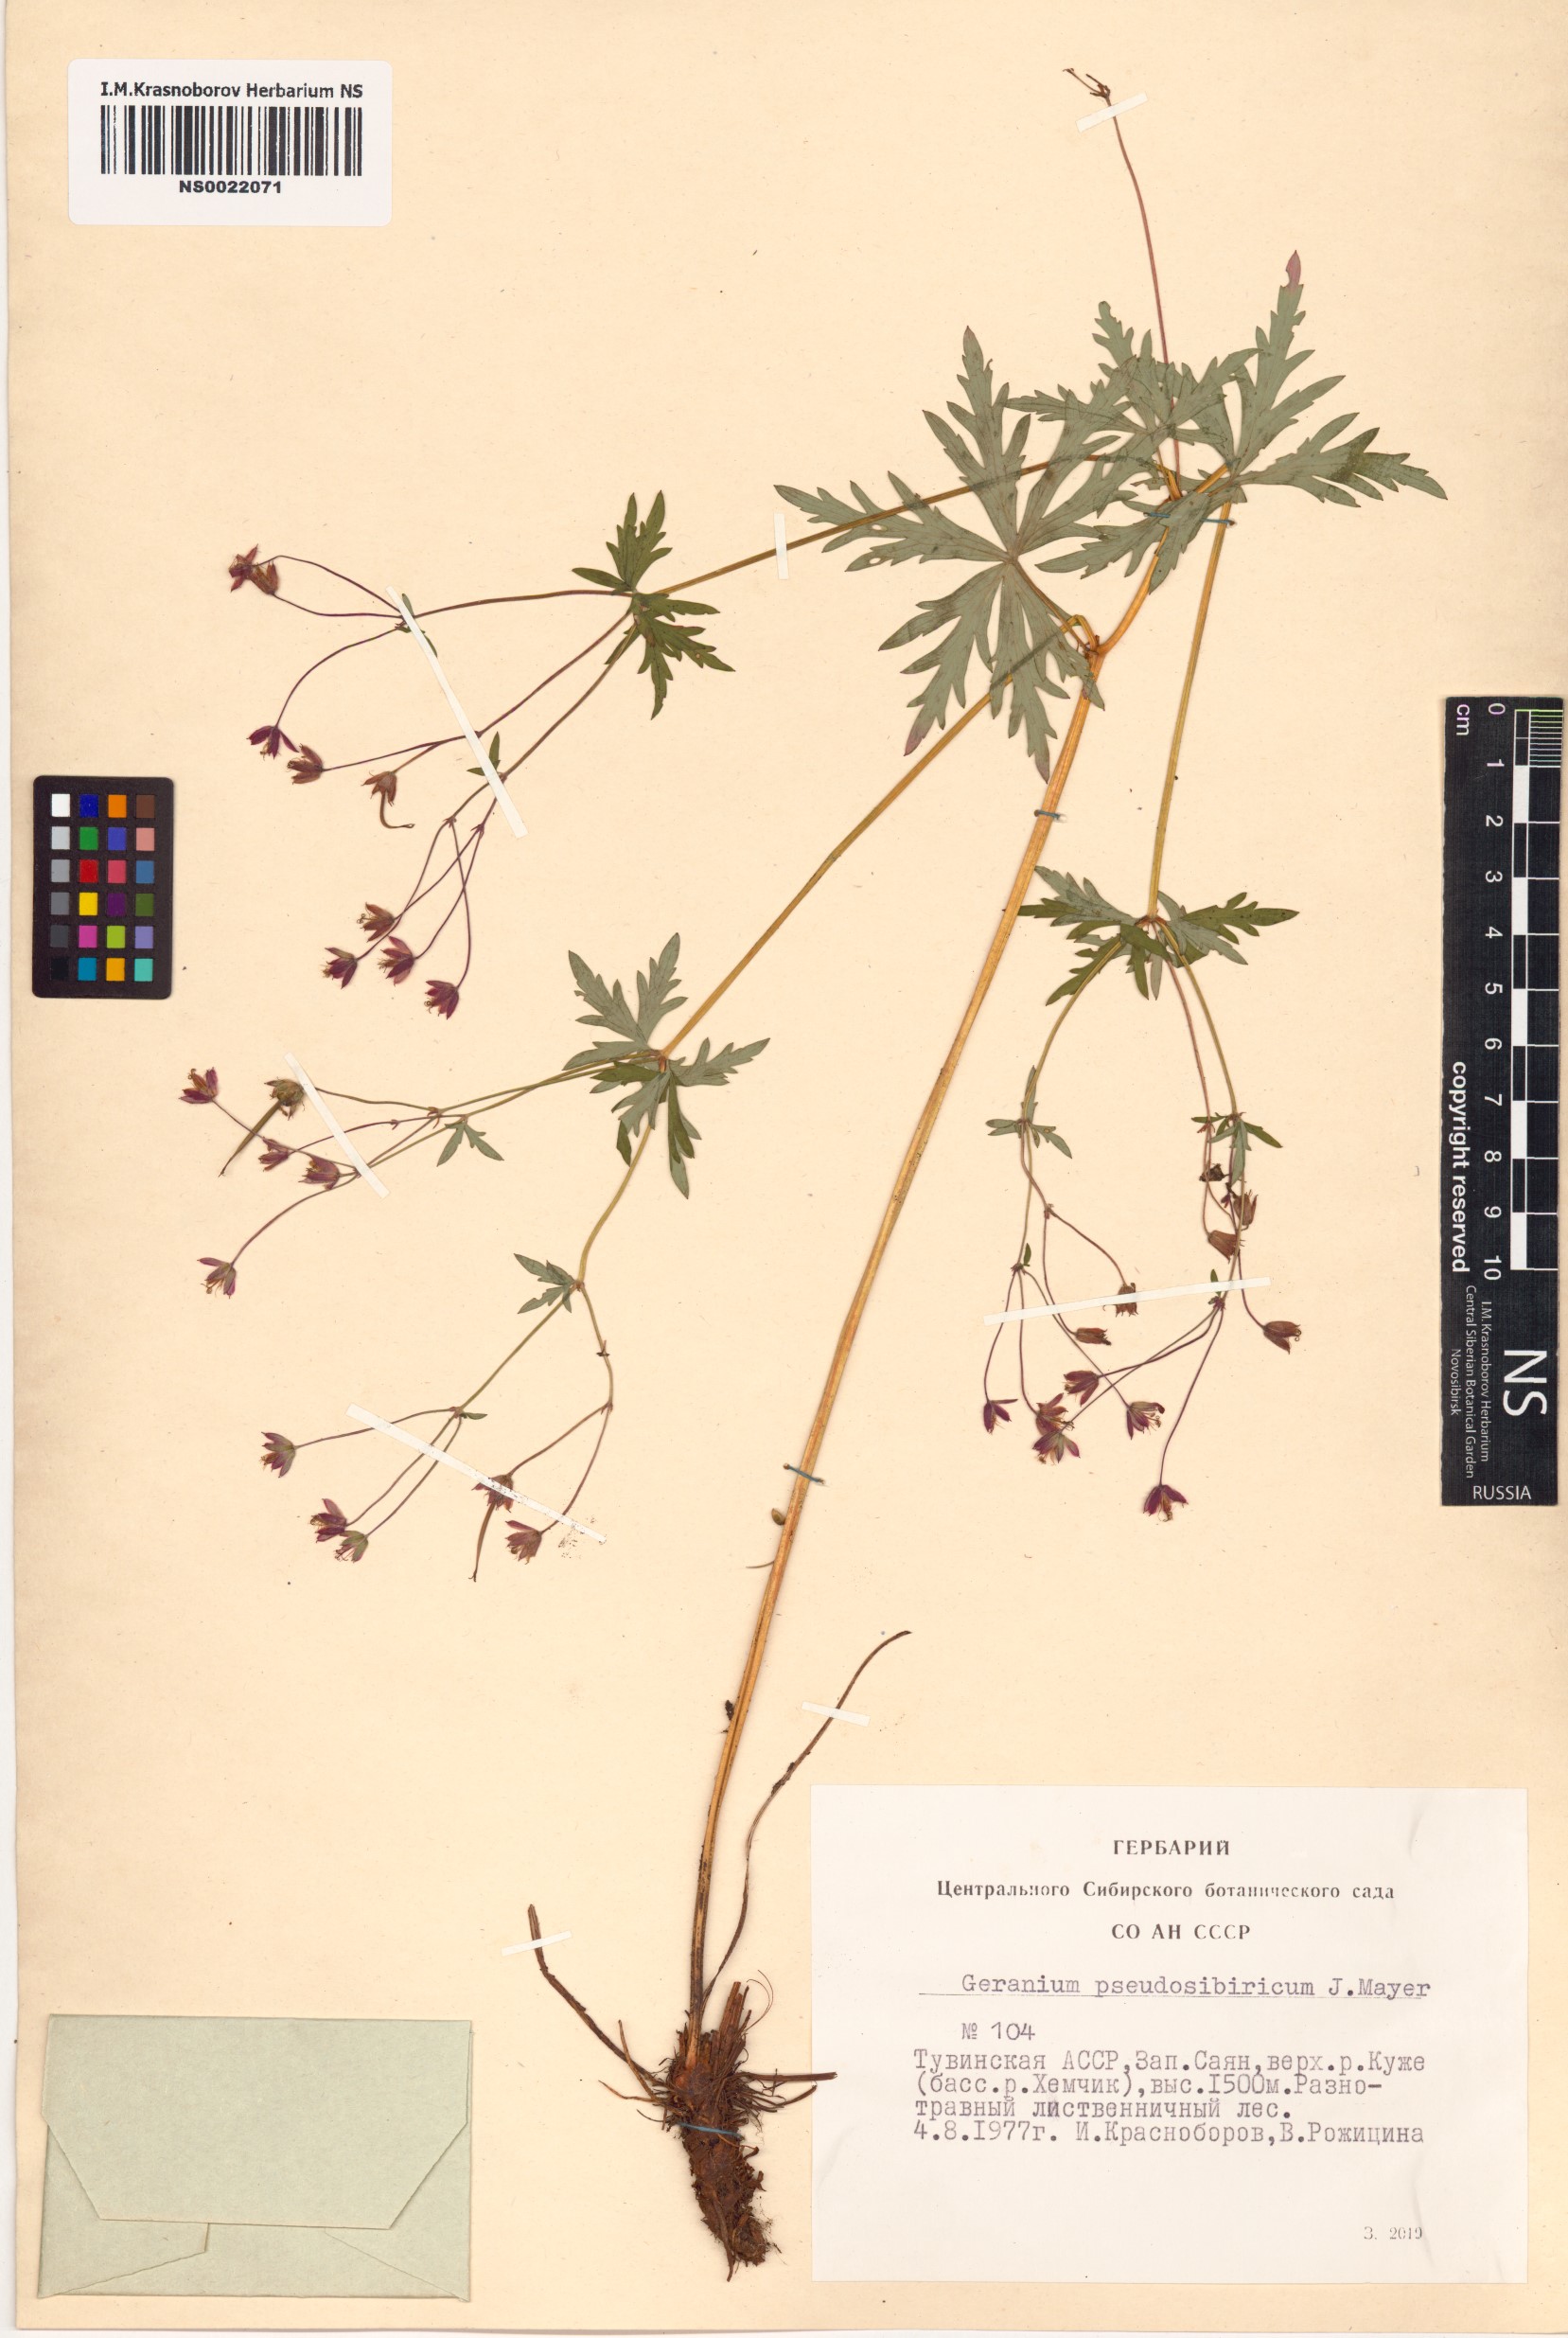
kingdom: Plantae
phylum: Tracheophyta
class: Magnoliopsida
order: Geraniales
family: Geraniaceae
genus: Geranium
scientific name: Geranium pseudosibiricum
